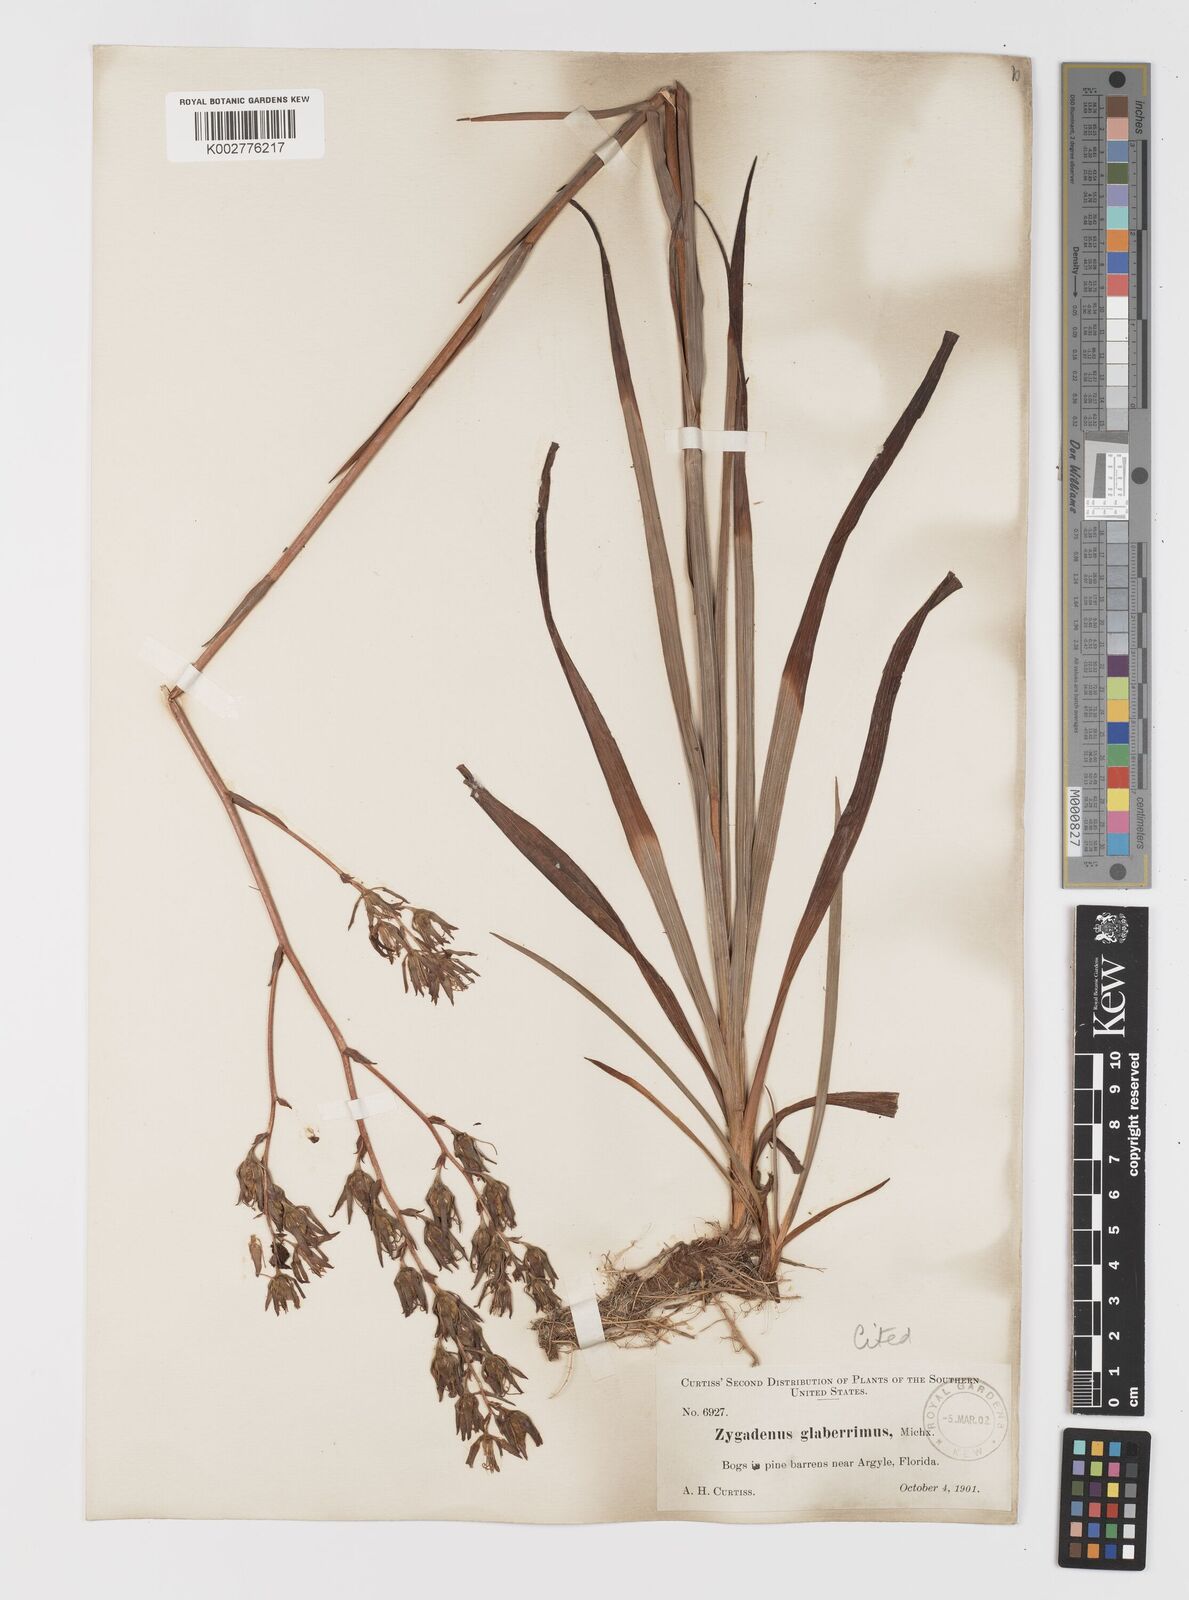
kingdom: Plantae
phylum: Tracheophyta
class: Liliopsida
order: Liliales
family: Melanthiaceae
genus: Zigadenus
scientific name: Zigadenus glaberrimus
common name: Sandbog death camas
